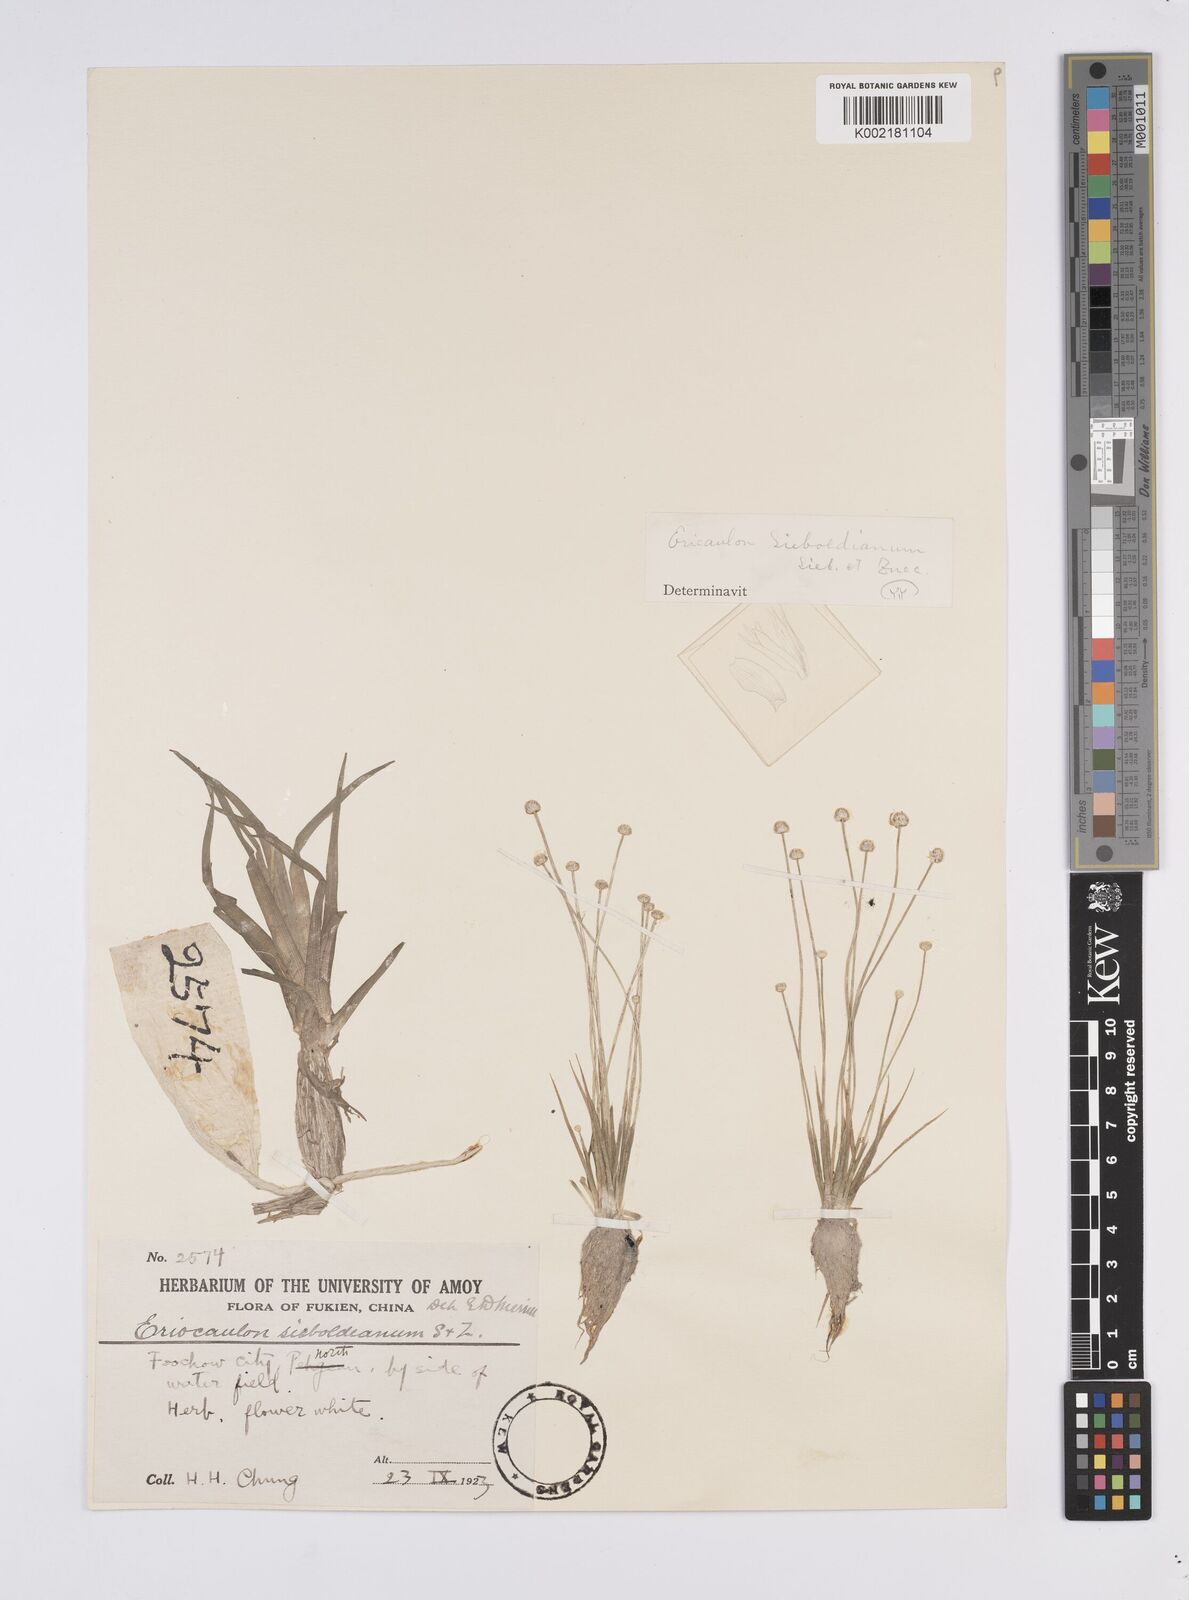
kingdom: Plantae
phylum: Tracheophyta
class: Liliopsida
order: Poales
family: Eriocaulaceae
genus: Eriocaulon
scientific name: Eriocaulon cinereum
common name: Ashy pipewort
